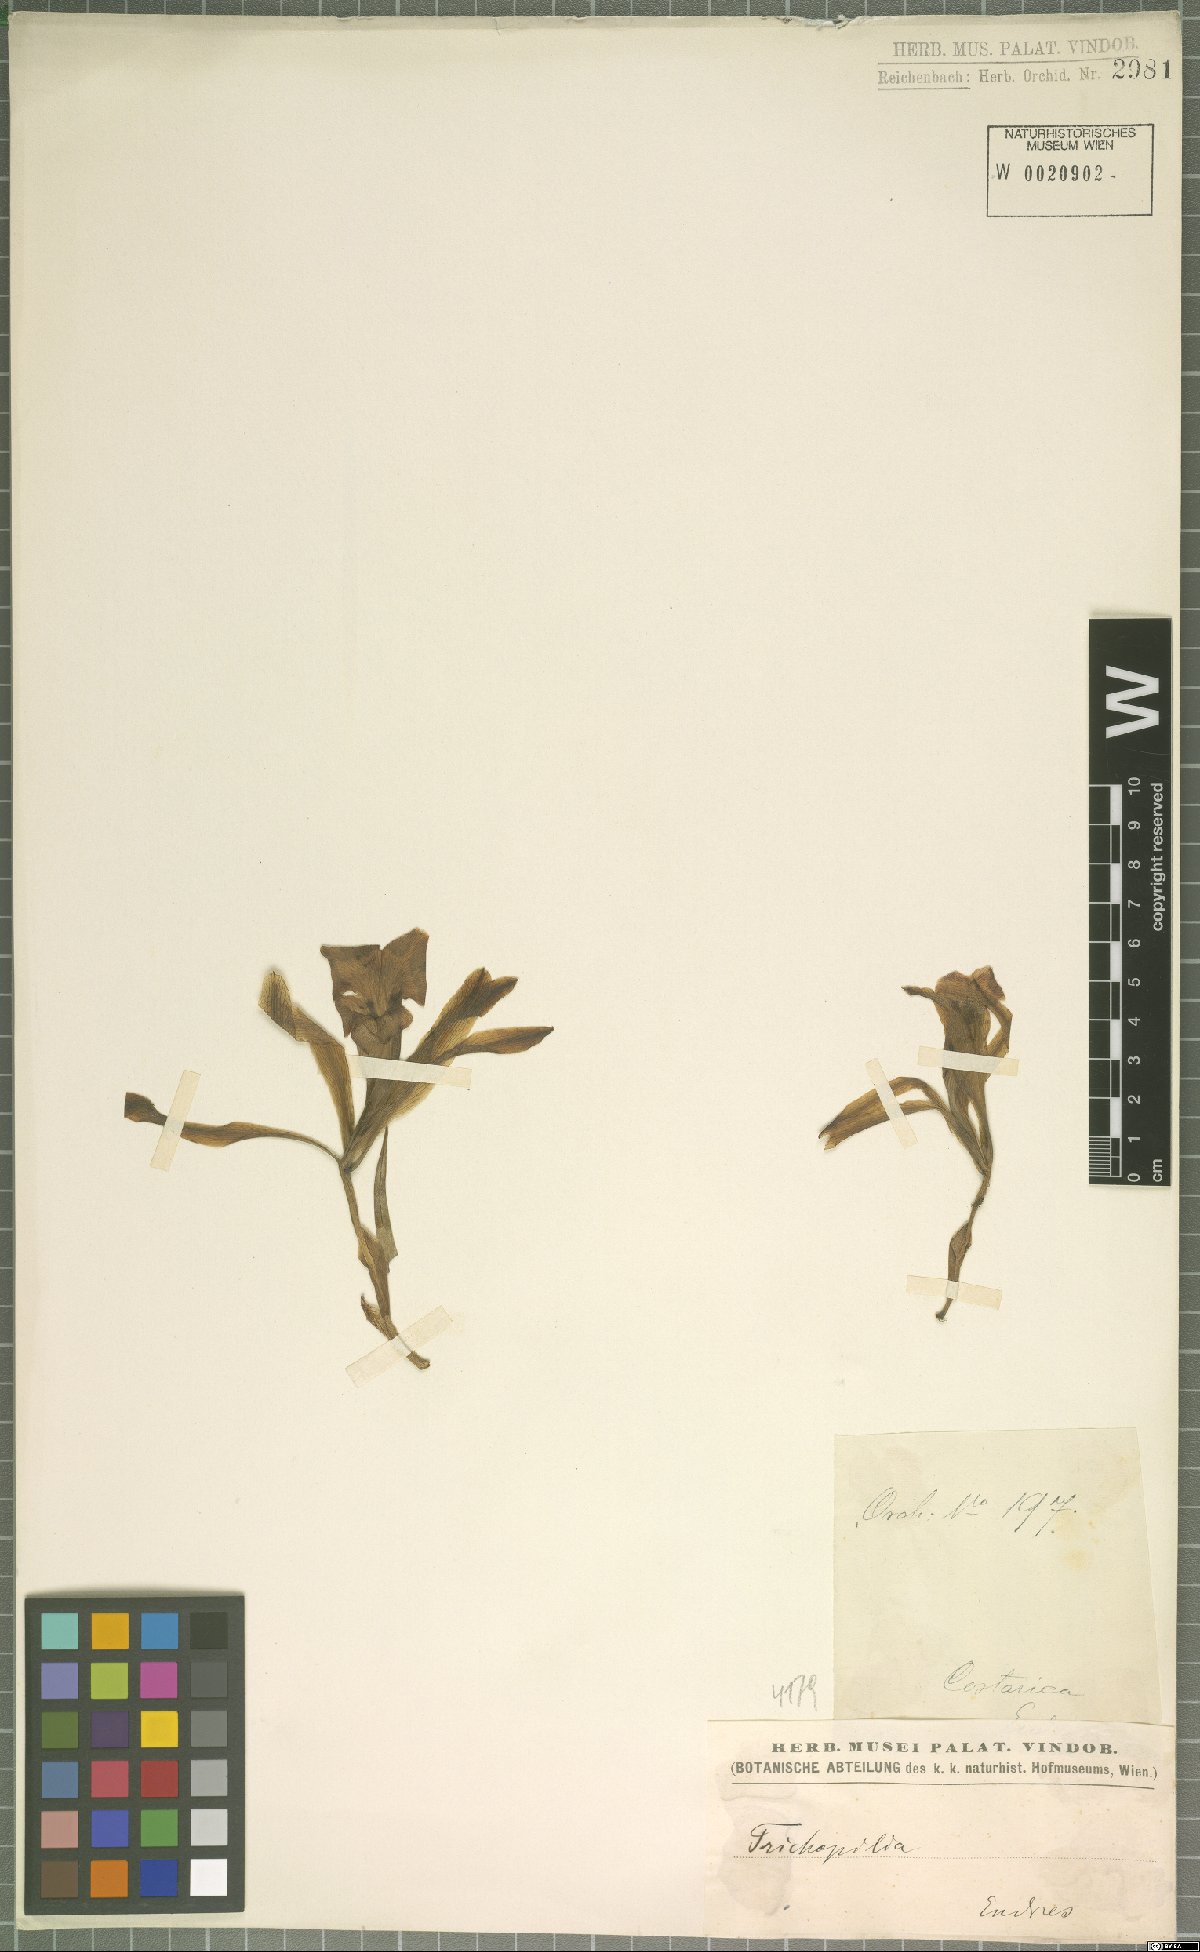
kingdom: Plantae
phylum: Tracheophyta
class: Liliopsida
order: Asparagales
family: Orchidaceae
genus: Trichopilia
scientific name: Trichopilia
